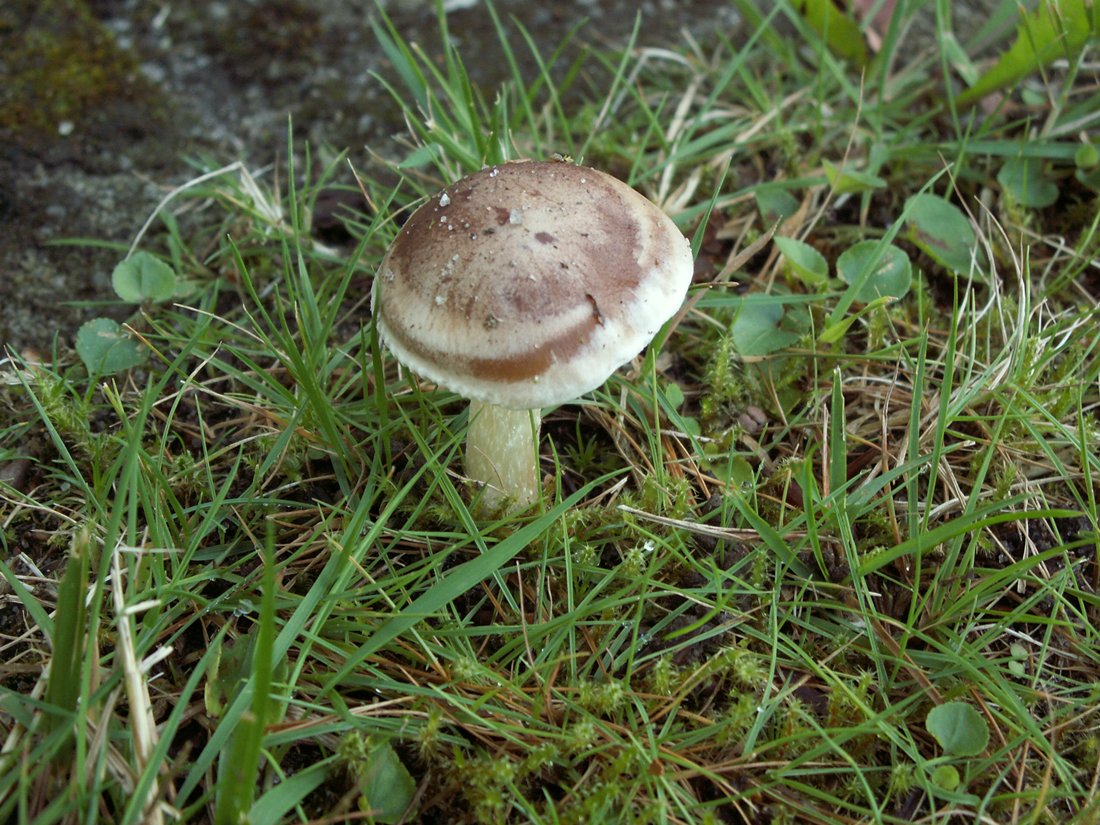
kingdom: Fungi
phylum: Basidiomycota
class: Agaricomycetes
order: Agaricales
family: Hymenogastraceae
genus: Hebeloma
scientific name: Hebeloma mesophaeum
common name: lerbrun tåreblad
